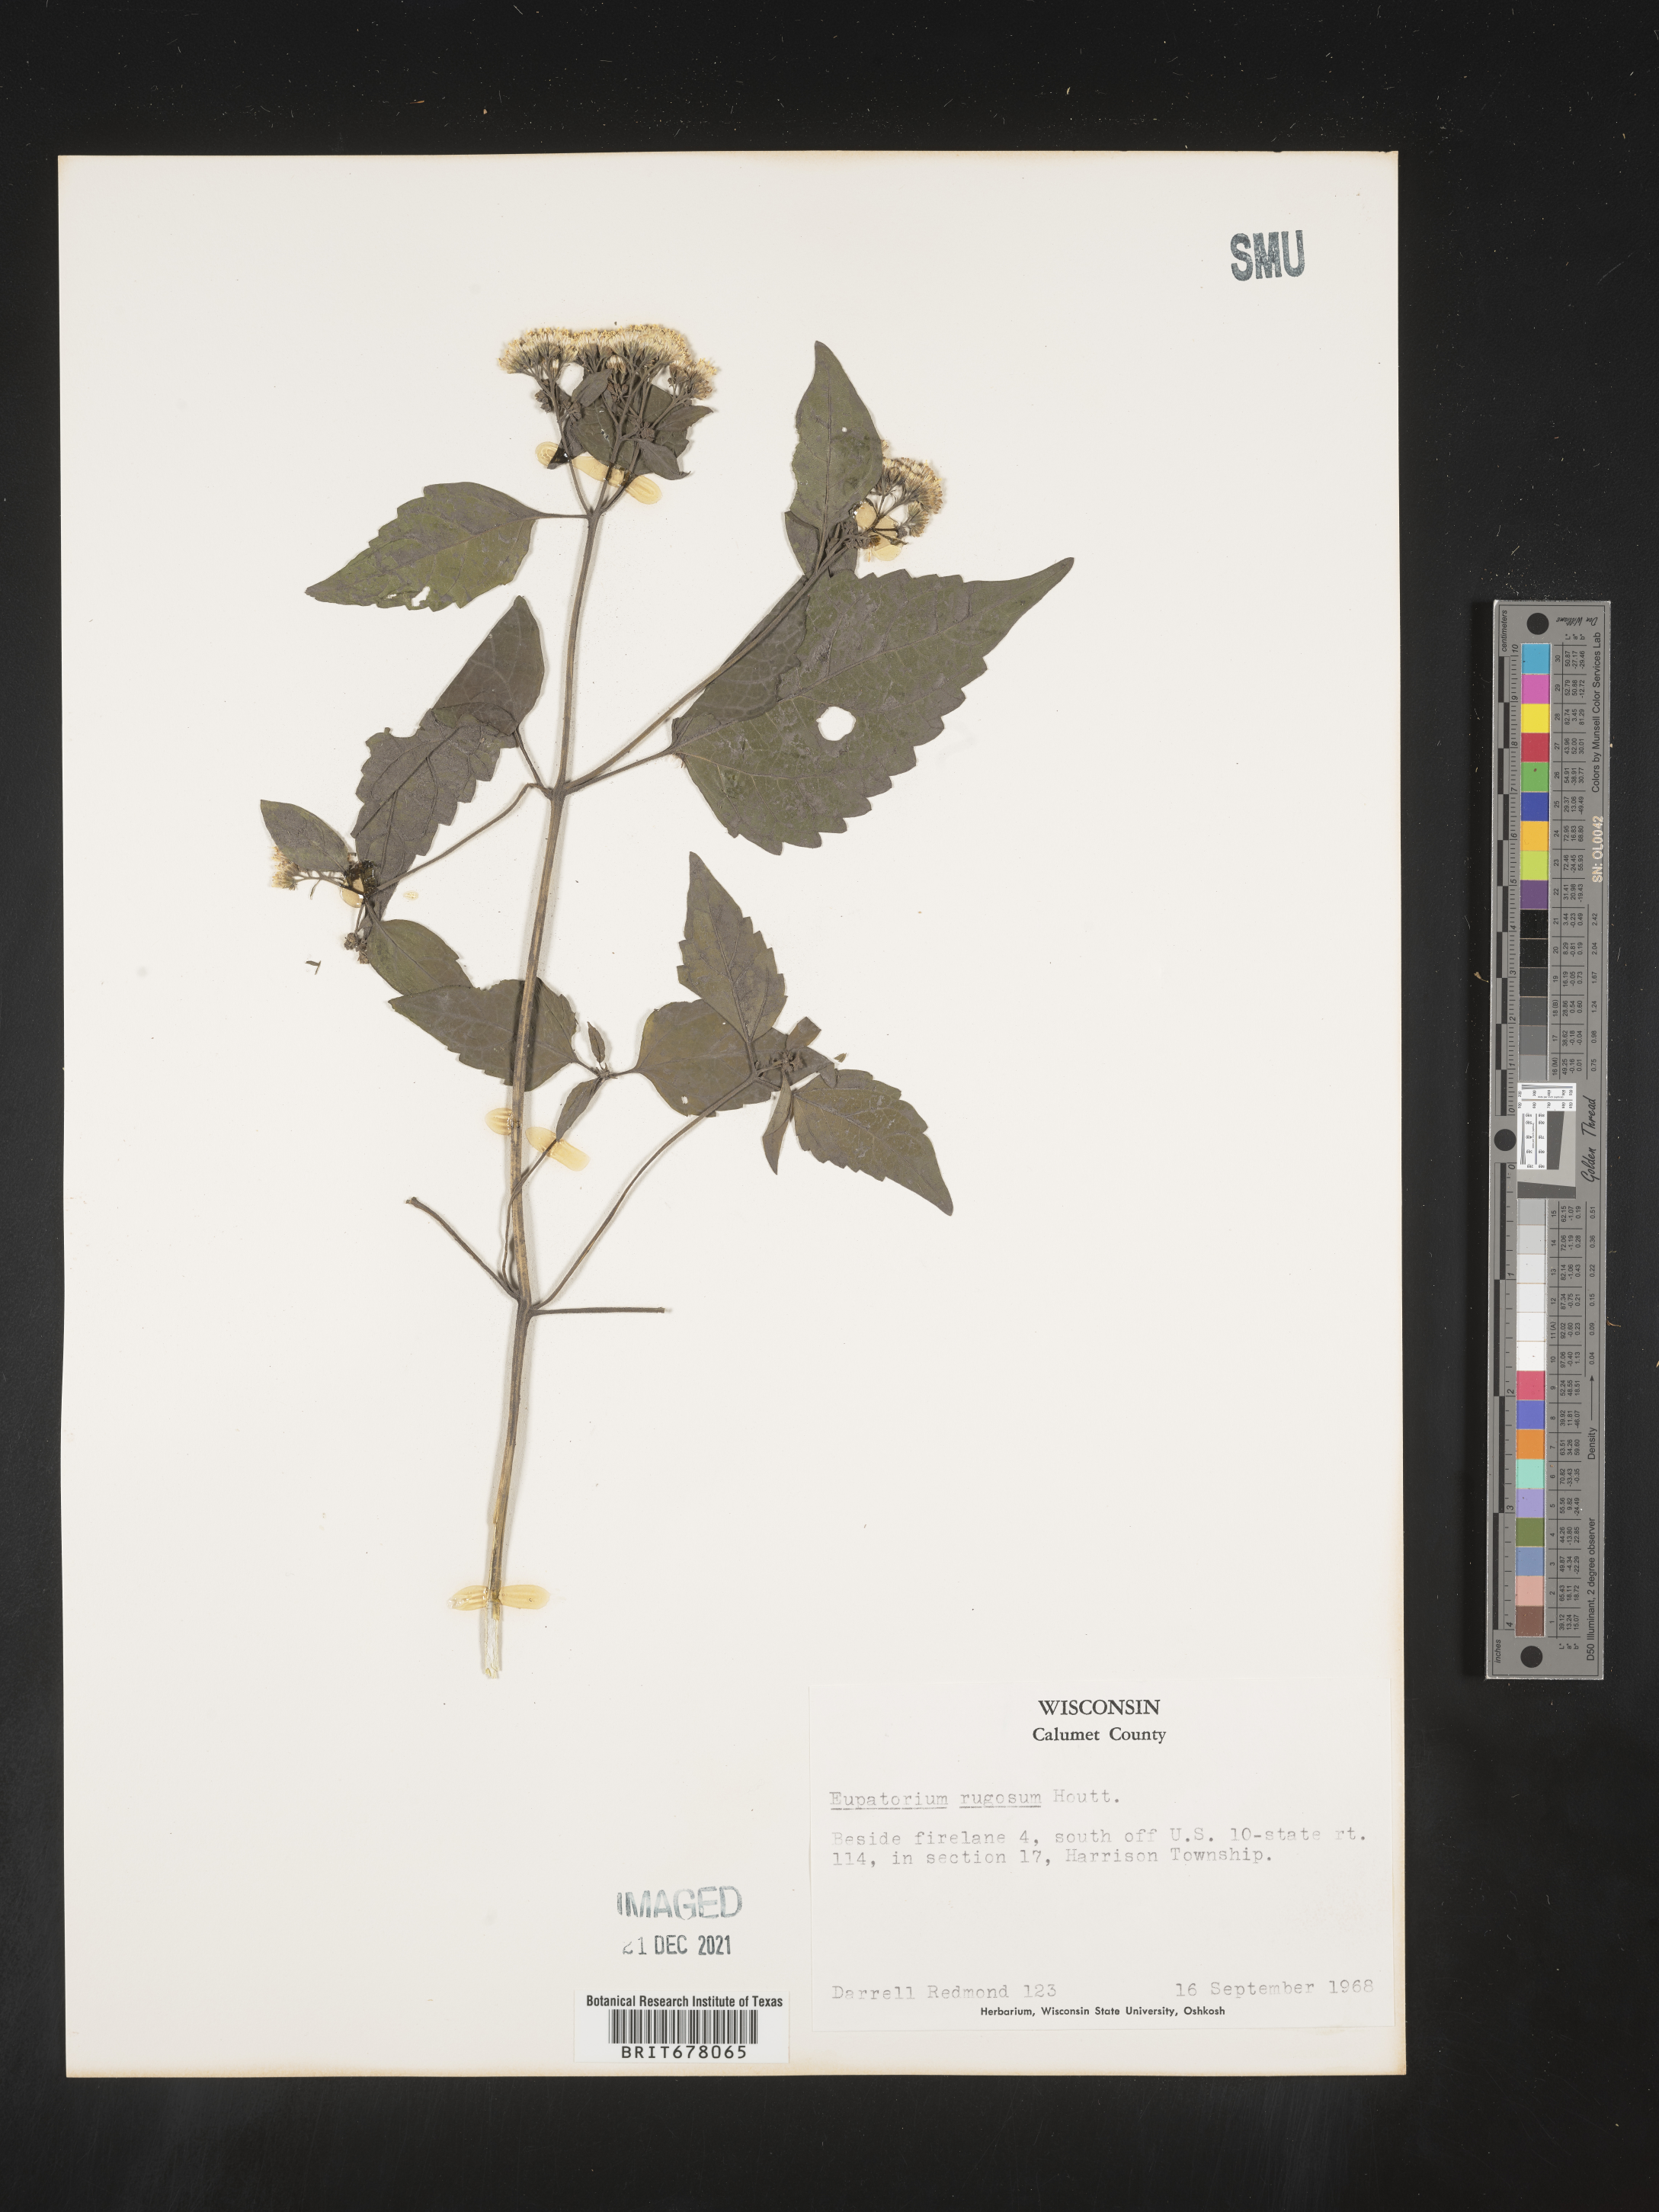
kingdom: Plantae
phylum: Tracheophyta
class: Magnoliopsida
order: Asterales
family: Asteraceae
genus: Eupatorium
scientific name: Eupatorium
